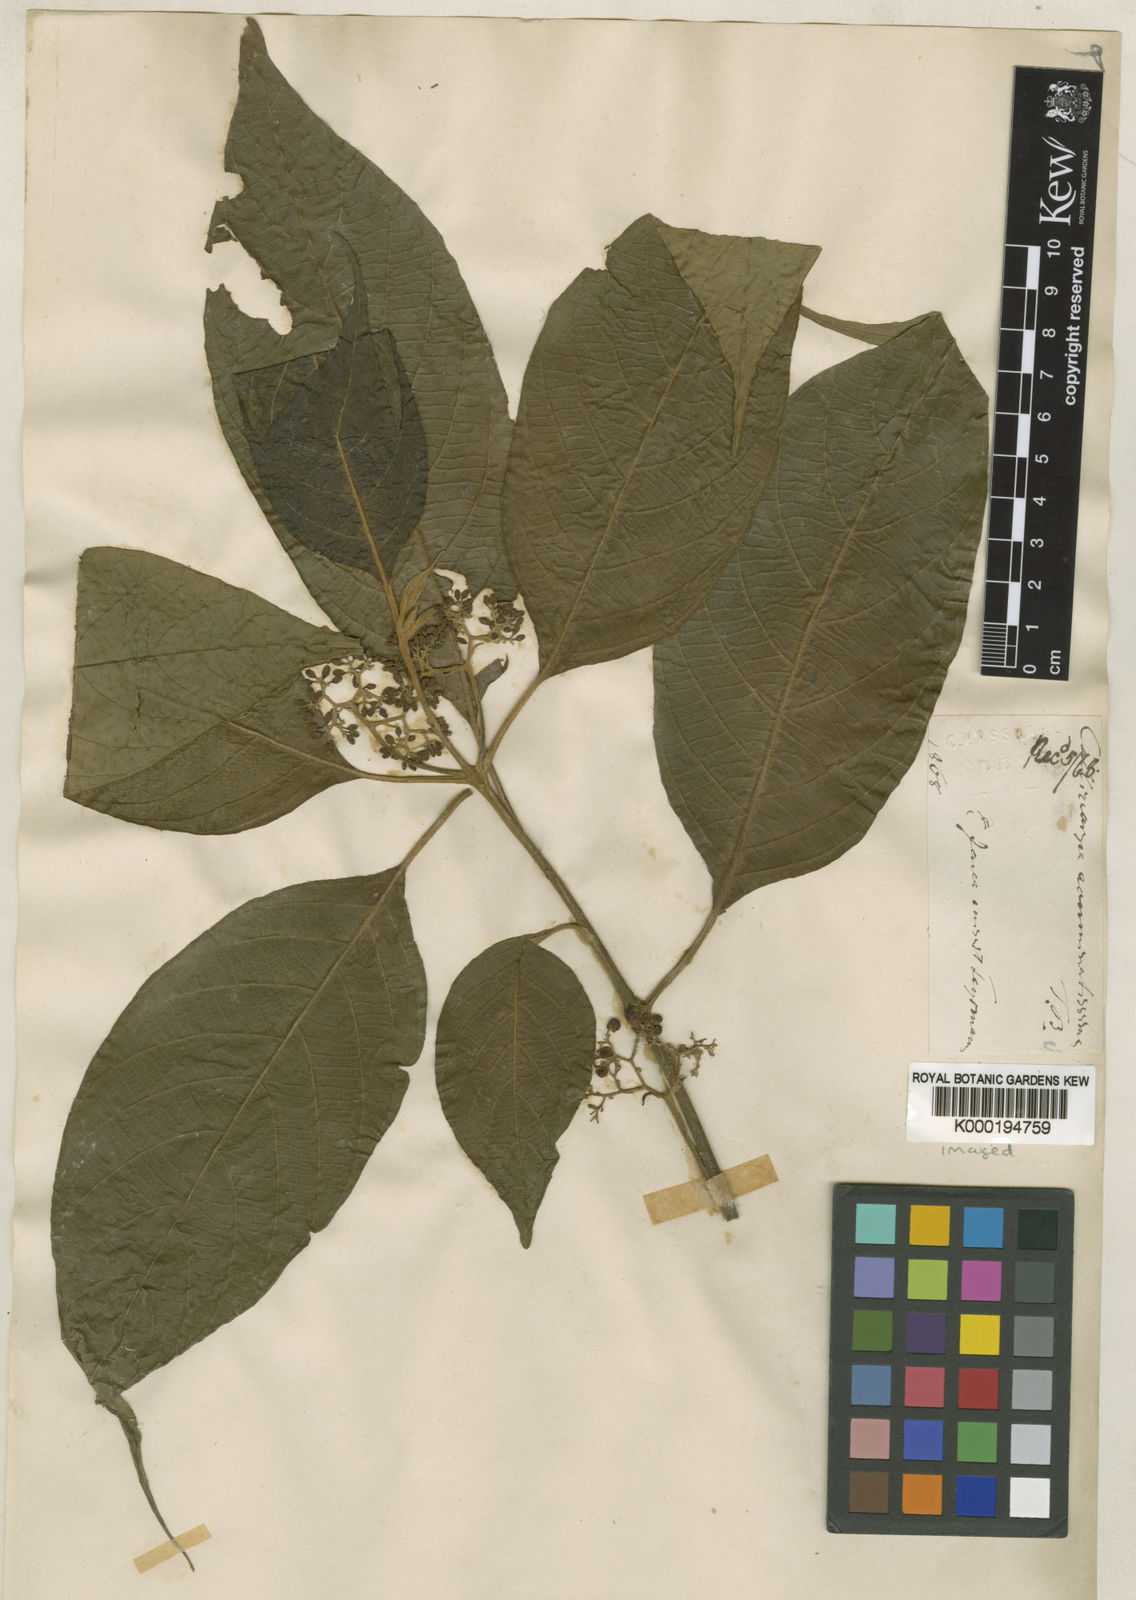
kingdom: Plantae
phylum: Tracheophyta
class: Magnoliopsida
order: Lamiales
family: Lamiaceae
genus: Callicarpa
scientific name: Callicarpa pentandra
